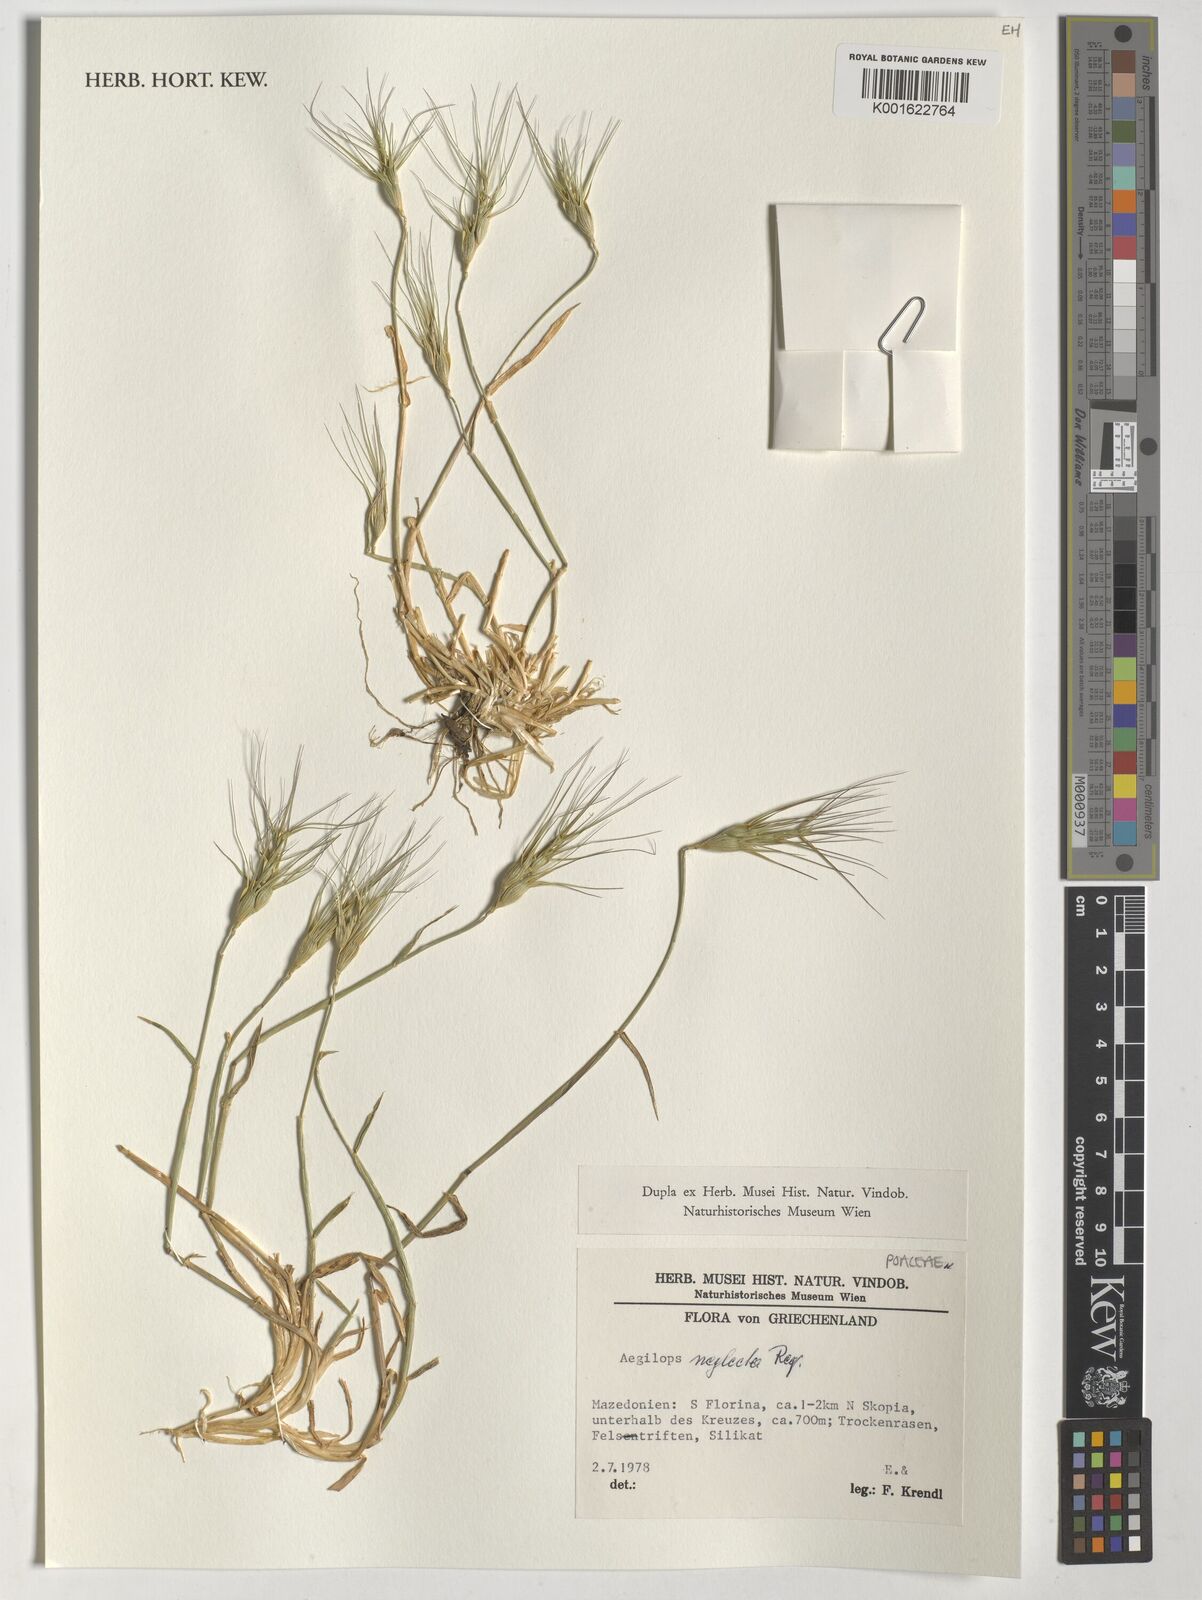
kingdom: Plantae
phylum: Tracheophyta
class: Liliopsida
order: Poales
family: Poaceae
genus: Aegilops
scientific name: Aegilops neglecta
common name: Three-awn goat grass
